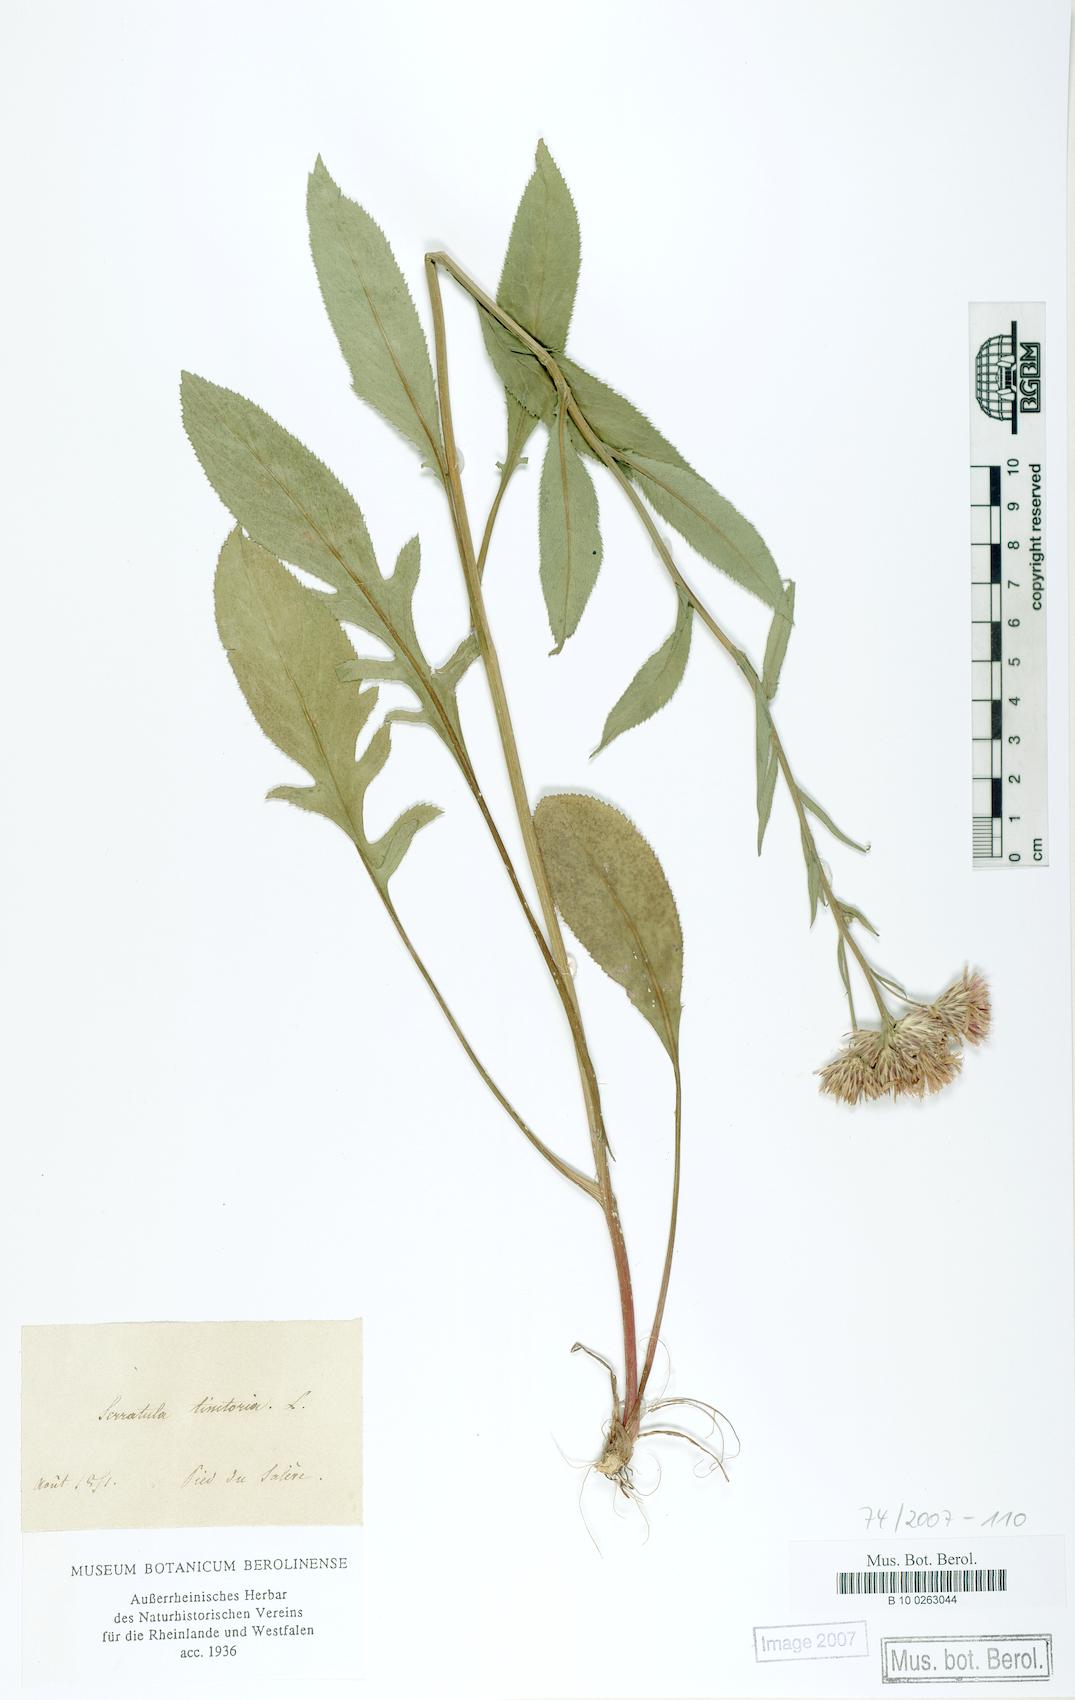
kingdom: Plantae
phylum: Tracheophyta
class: Magnoliopsida
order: Asterales
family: Asteraceae
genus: Serratula
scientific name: Serratula tinctoria
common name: Saw-wort
